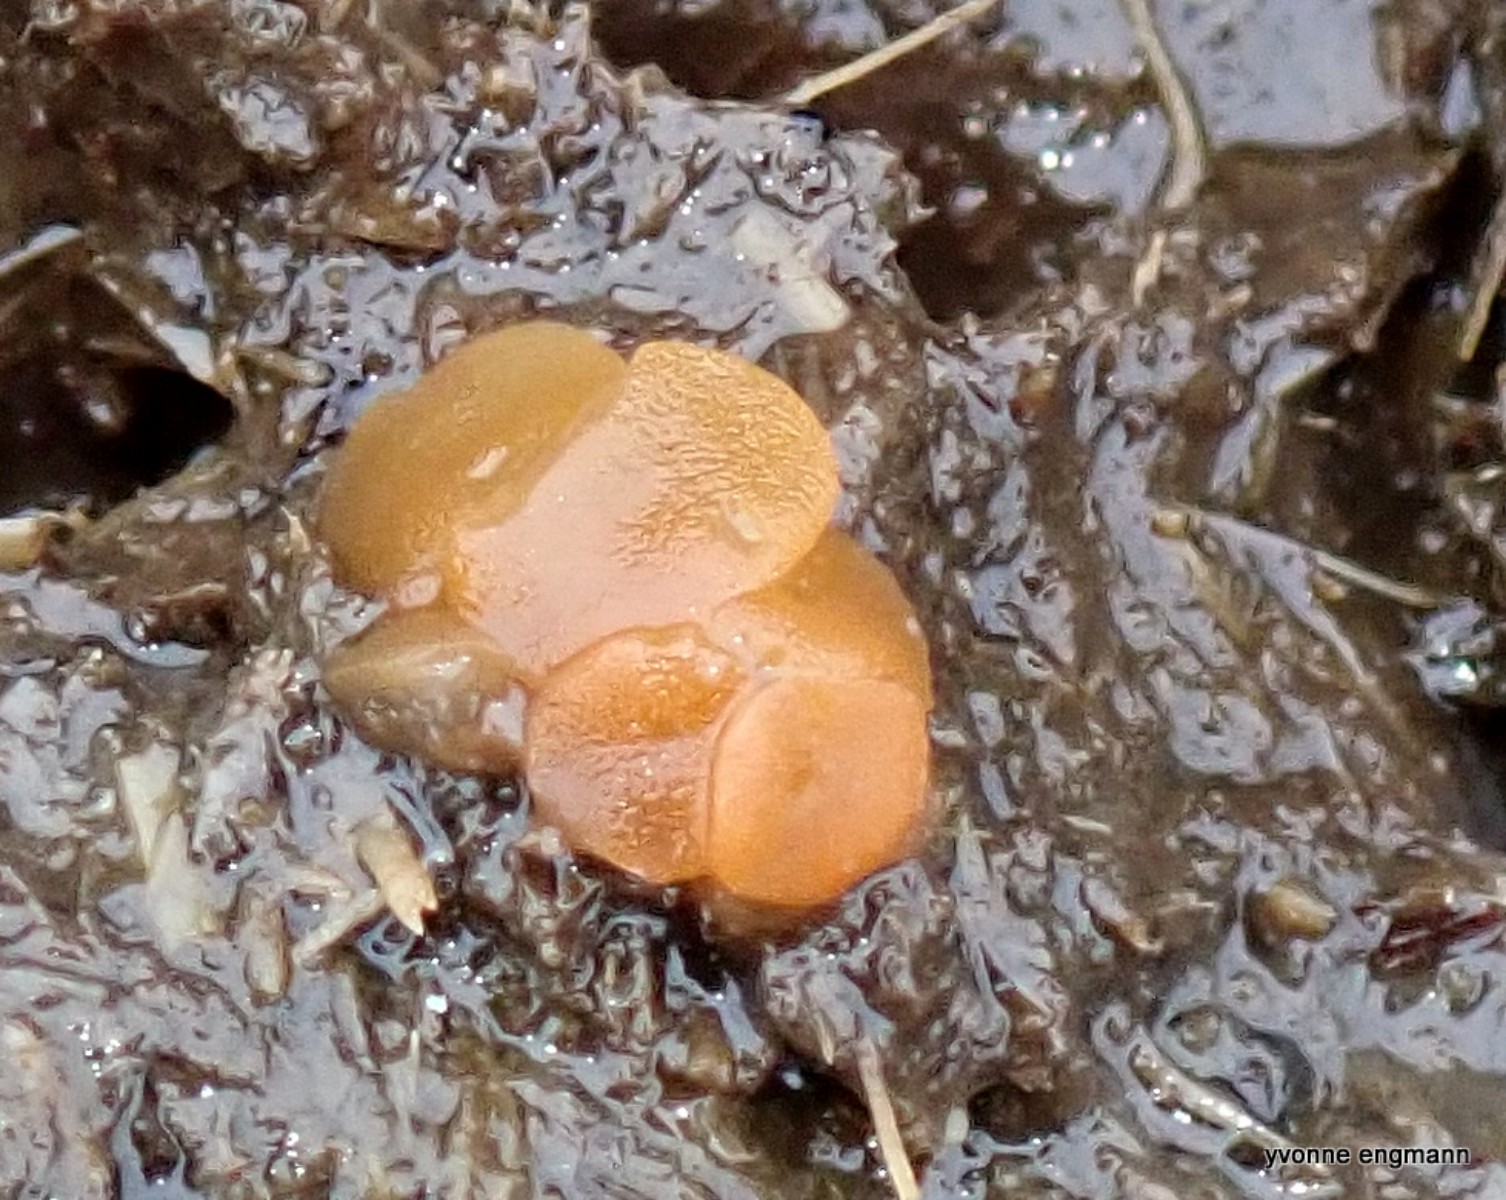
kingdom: Fungi
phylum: Ascomycota
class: Pezizomycetes
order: Pezizales
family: Pyronemataceae
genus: Cheilymenia
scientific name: Cheilymenia granulata
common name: møgbæger
